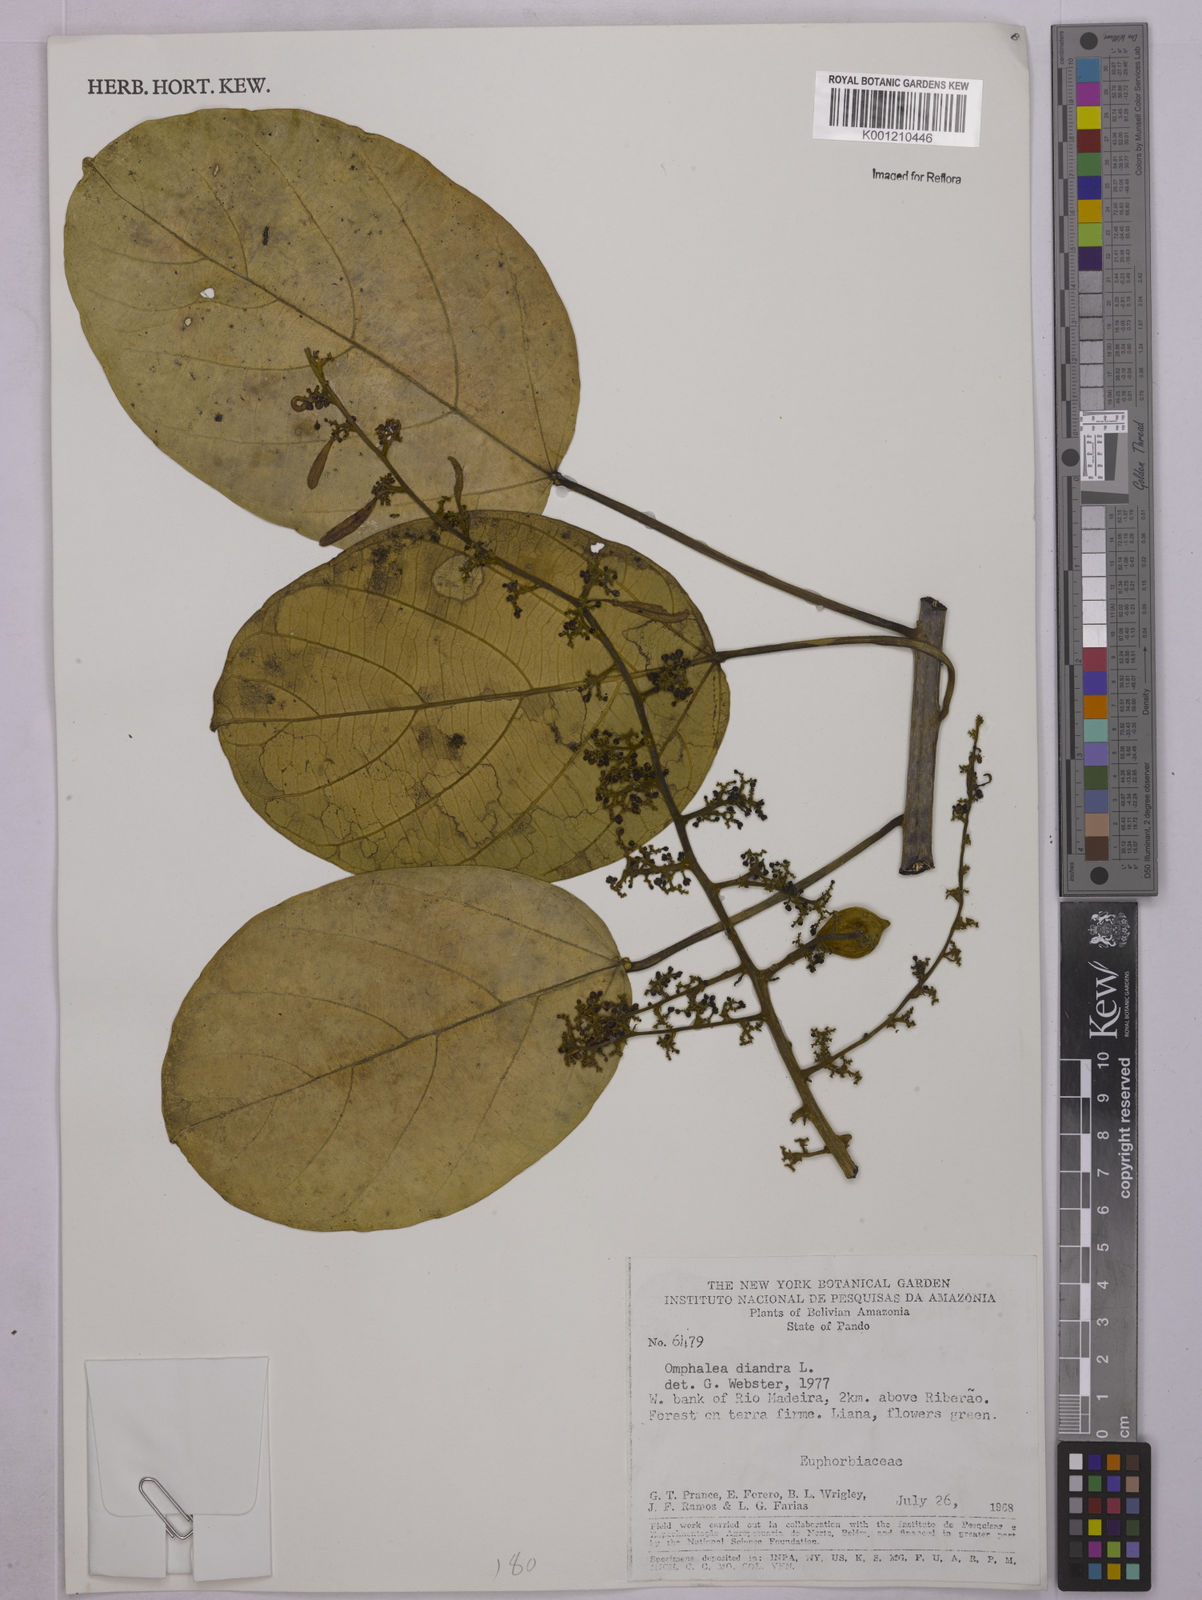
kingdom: Plantae
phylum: Tracheophyta
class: Magnoliopsida
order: Malpighiales
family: Euphorbiaceae
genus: Omphalea
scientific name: Omphalea diandra
